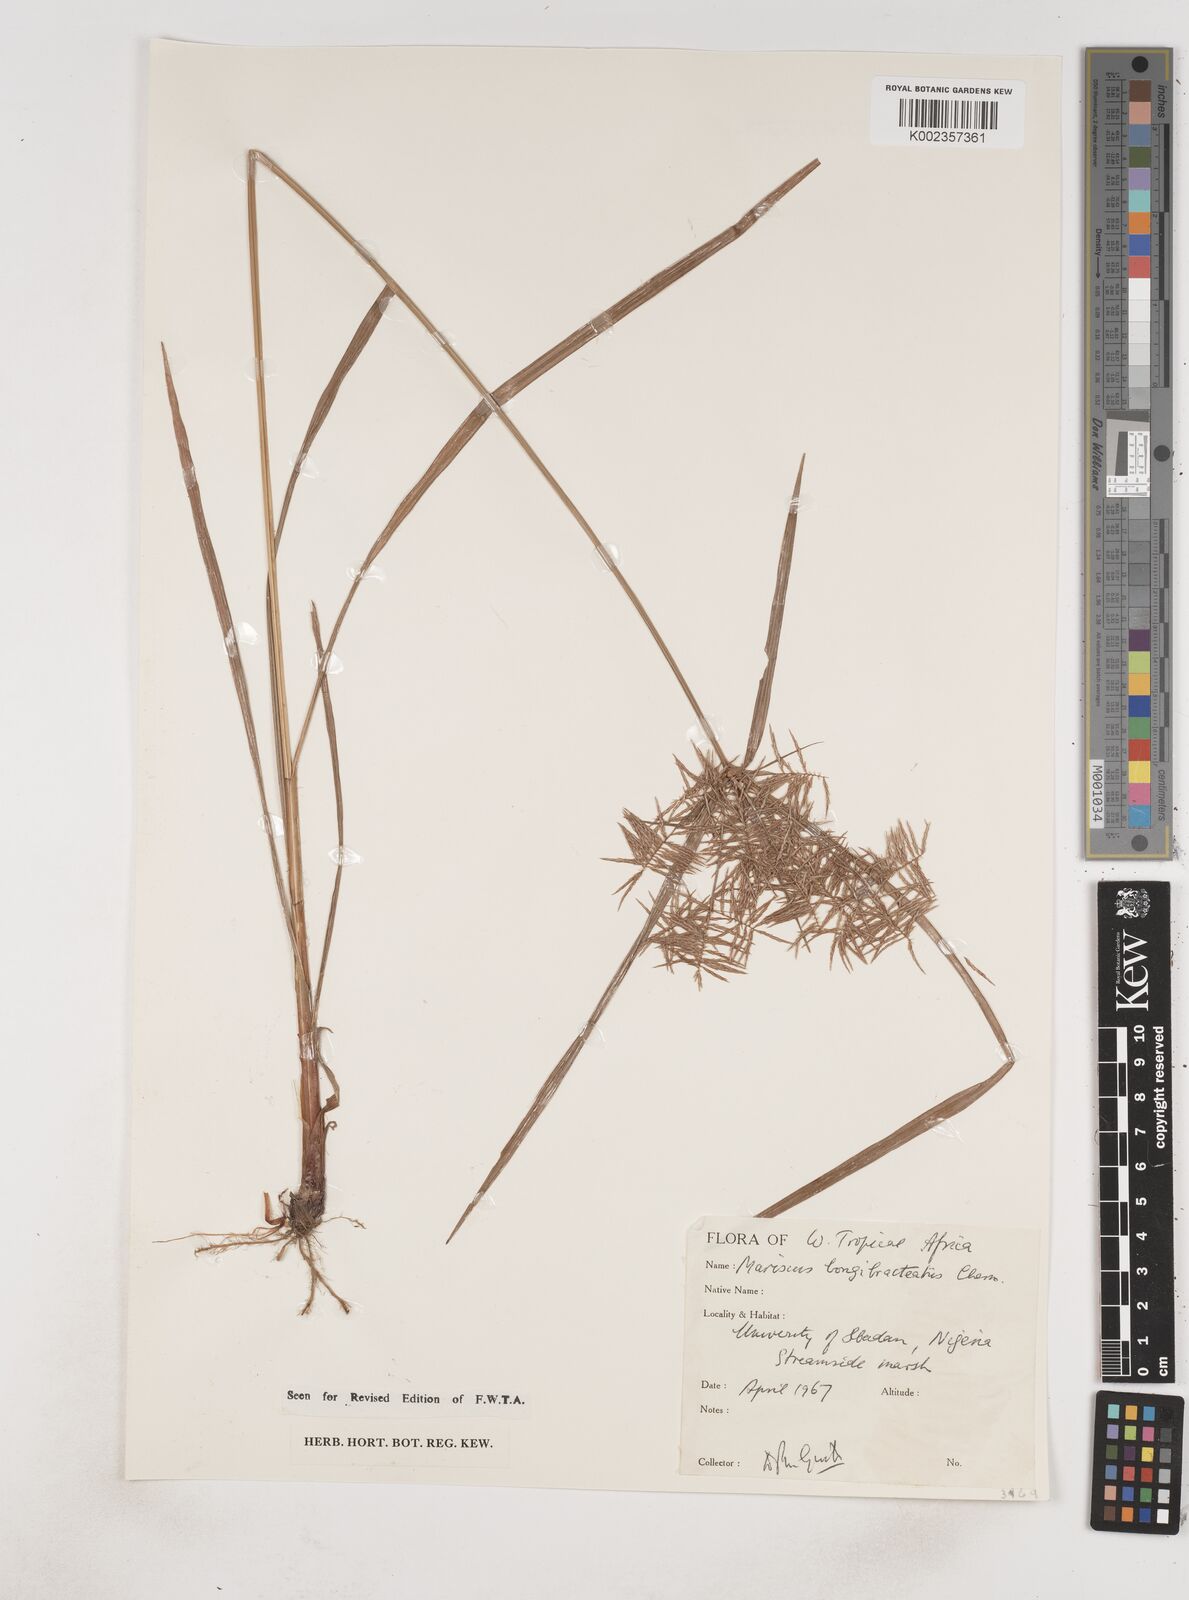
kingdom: Plantae
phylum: Tracheophyta
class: Liliopsida
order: Poales
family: Cyperaceae
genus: Cyperus
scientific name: Cyperus distans
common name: Slender cyperus
